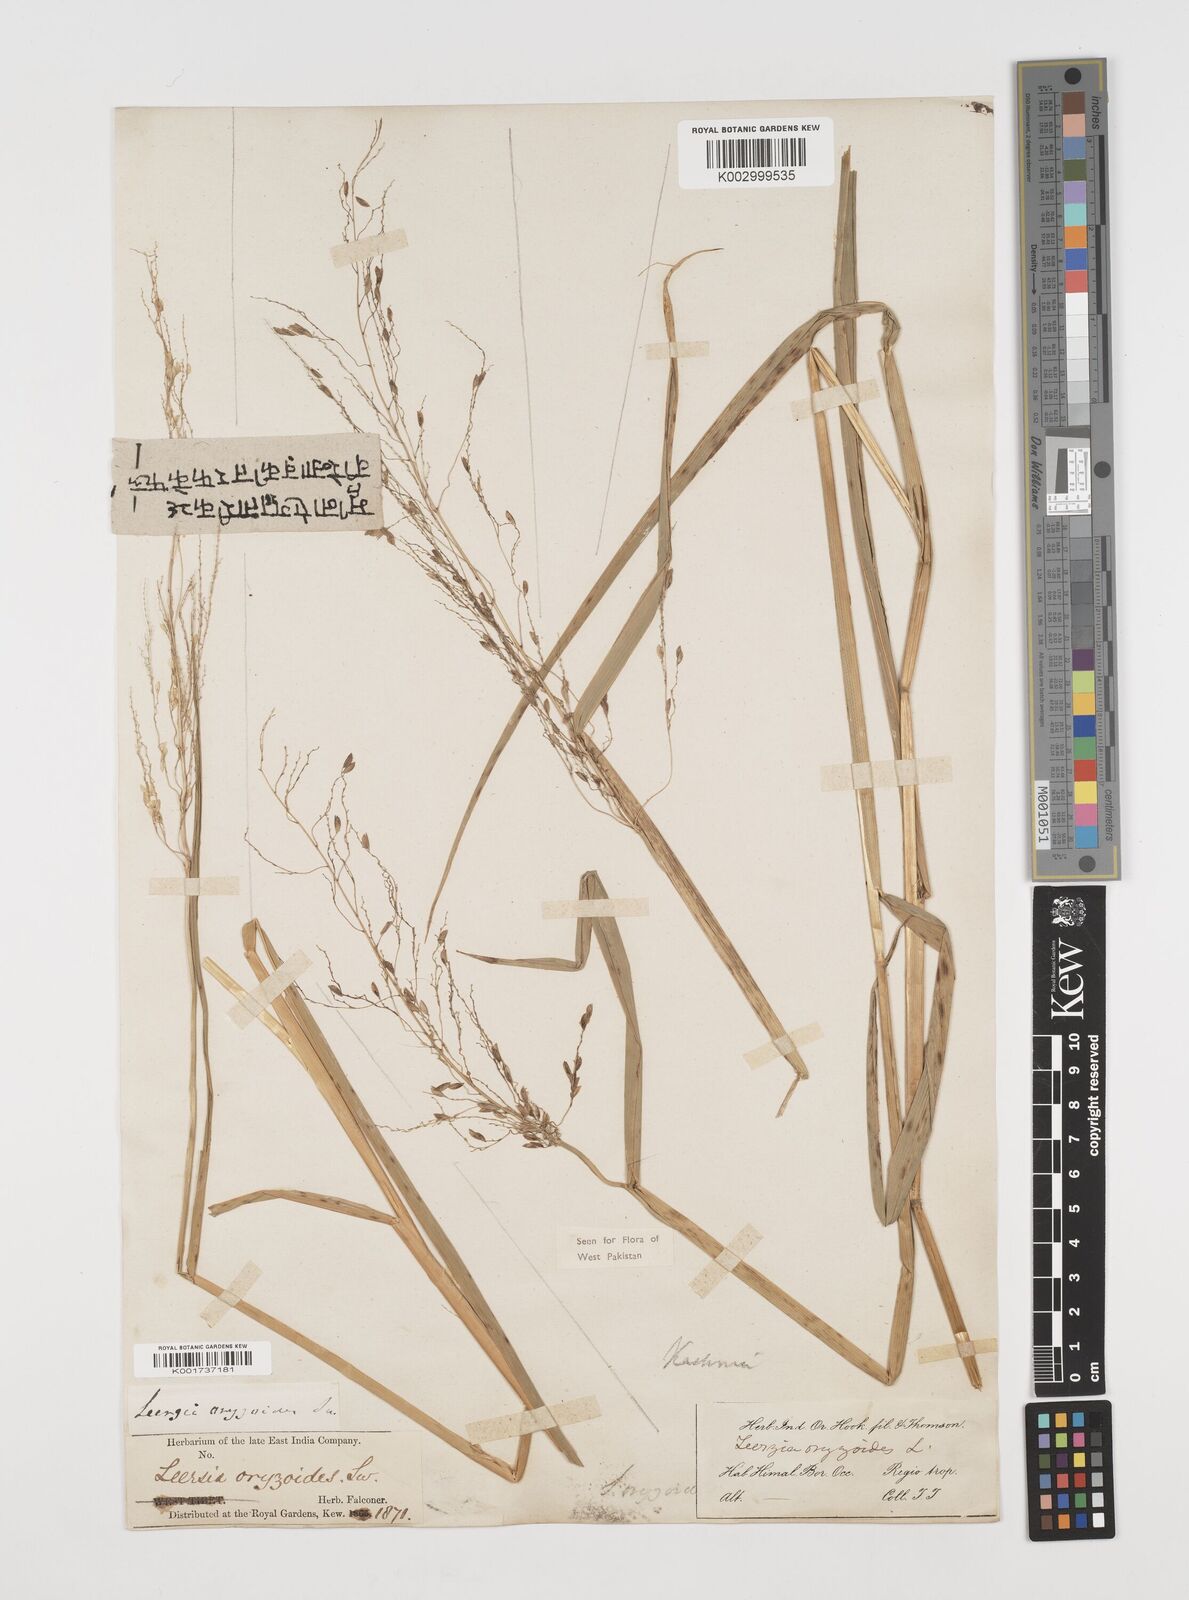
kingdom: Plantae
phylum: Tracheophyta
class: Liliopsida
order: Poales
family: Poaceae
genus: Leersia
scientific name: Leersia oryzoides
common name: Cut-grass
